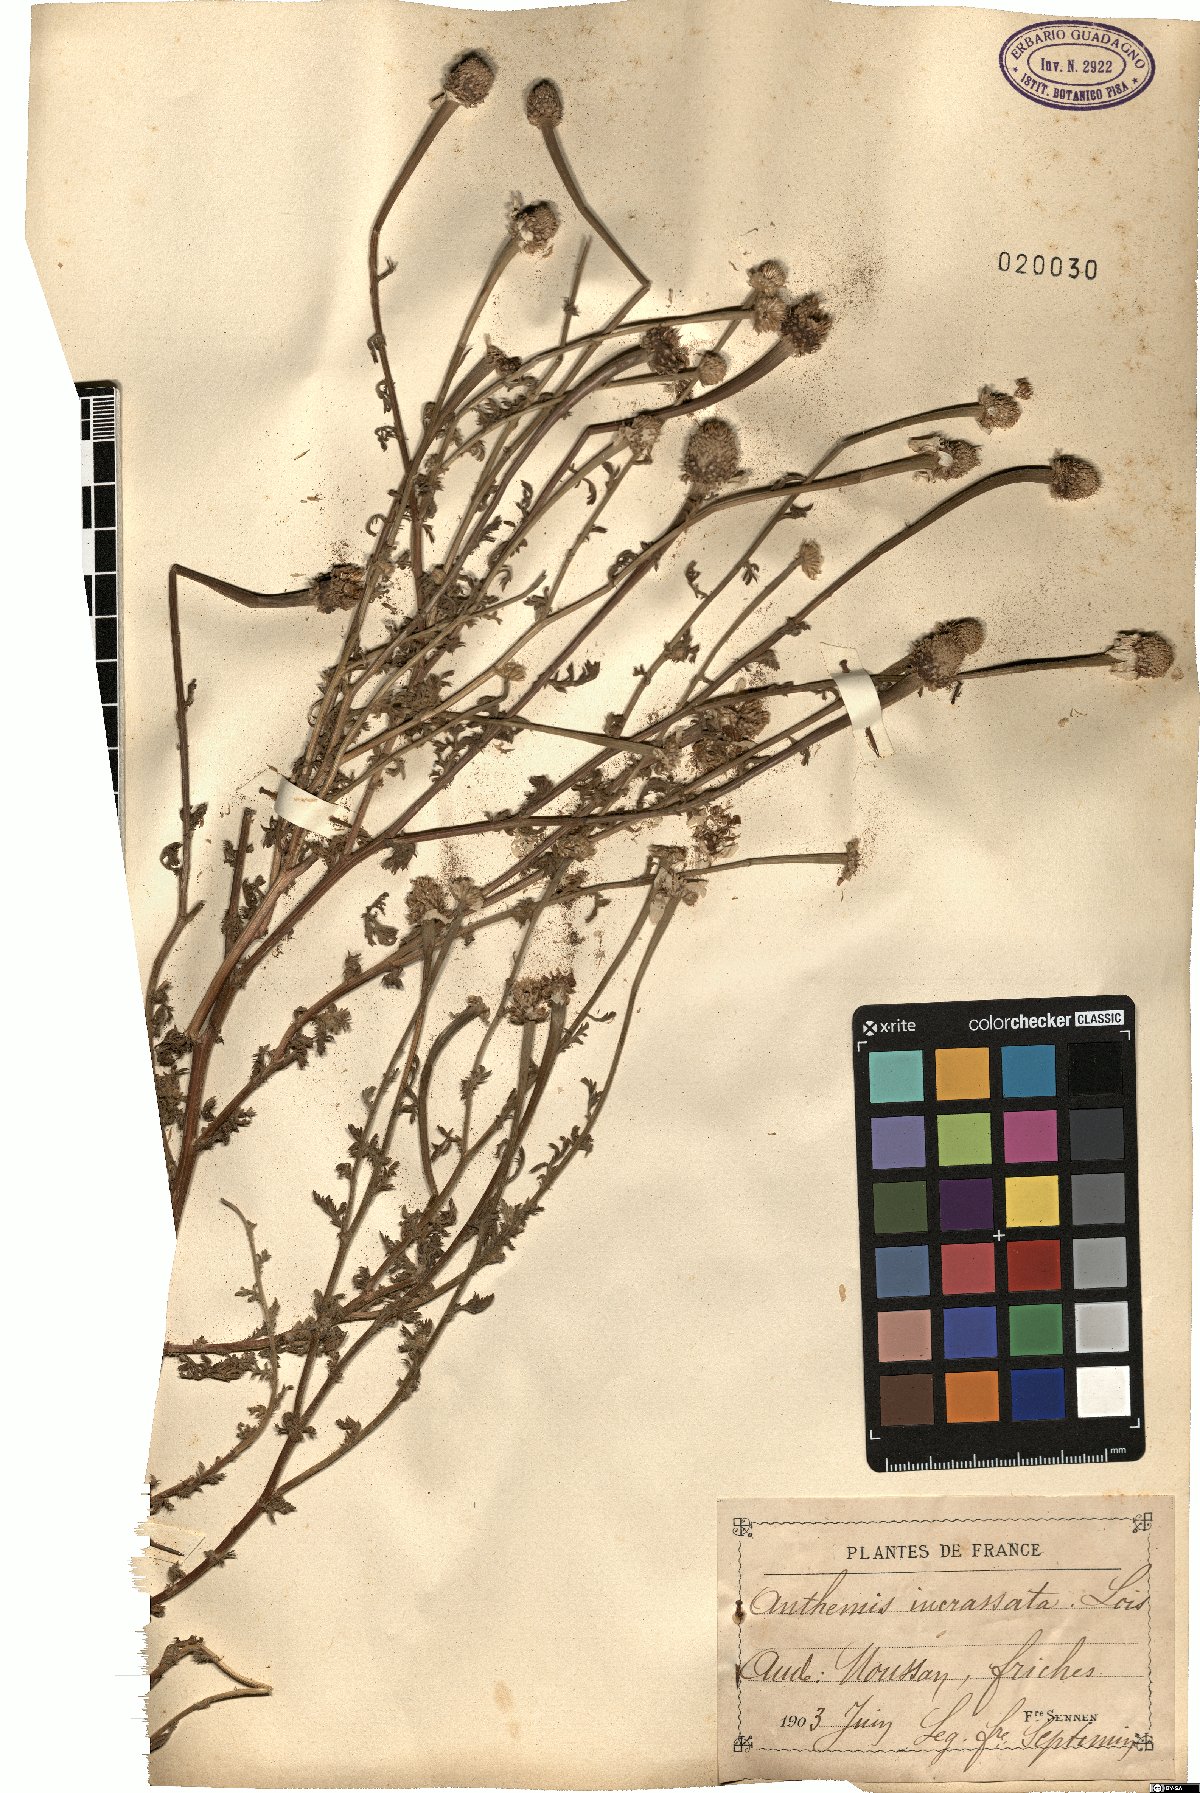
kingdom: Plantae
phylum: Tracheophyta
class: Magnoliopsida
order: Asterales
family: Asteraceae
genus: Anthemis
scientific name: Anthemis arvensis
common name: Corn chamomile
